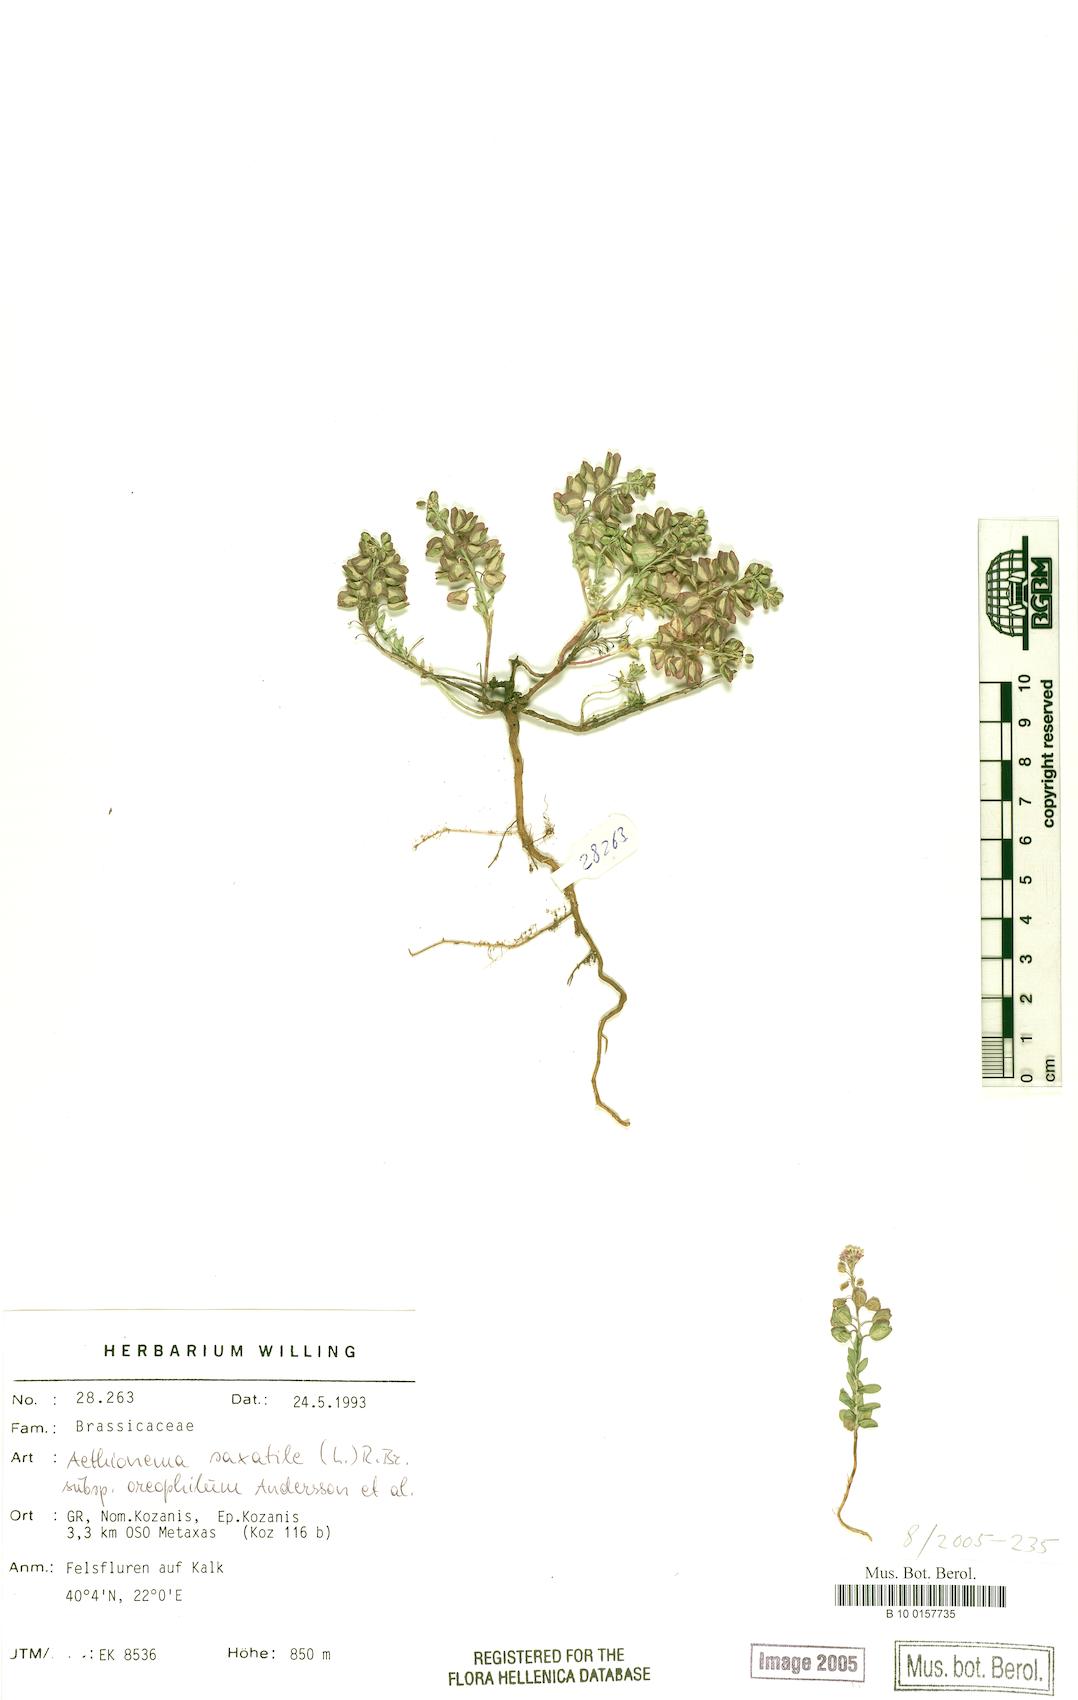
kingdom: Plantae
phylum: Tracheophyta
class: Magnoliopsida
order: Brassicales
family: Brassicaceae
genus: Aethionema
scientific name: Aethionema saxatile
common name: Burnt candytuft
